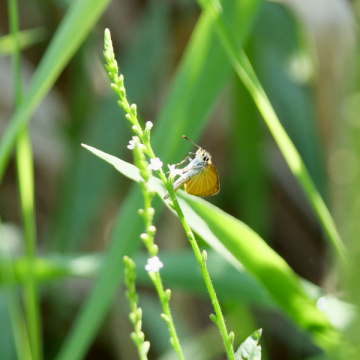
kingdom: Animalia
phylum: Arthropoda
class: Insecta
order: Lepidoptera
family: Hesperiidae
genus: Ancyloxypha
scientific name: Ancyloxypha numitor
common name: Least Skipper
